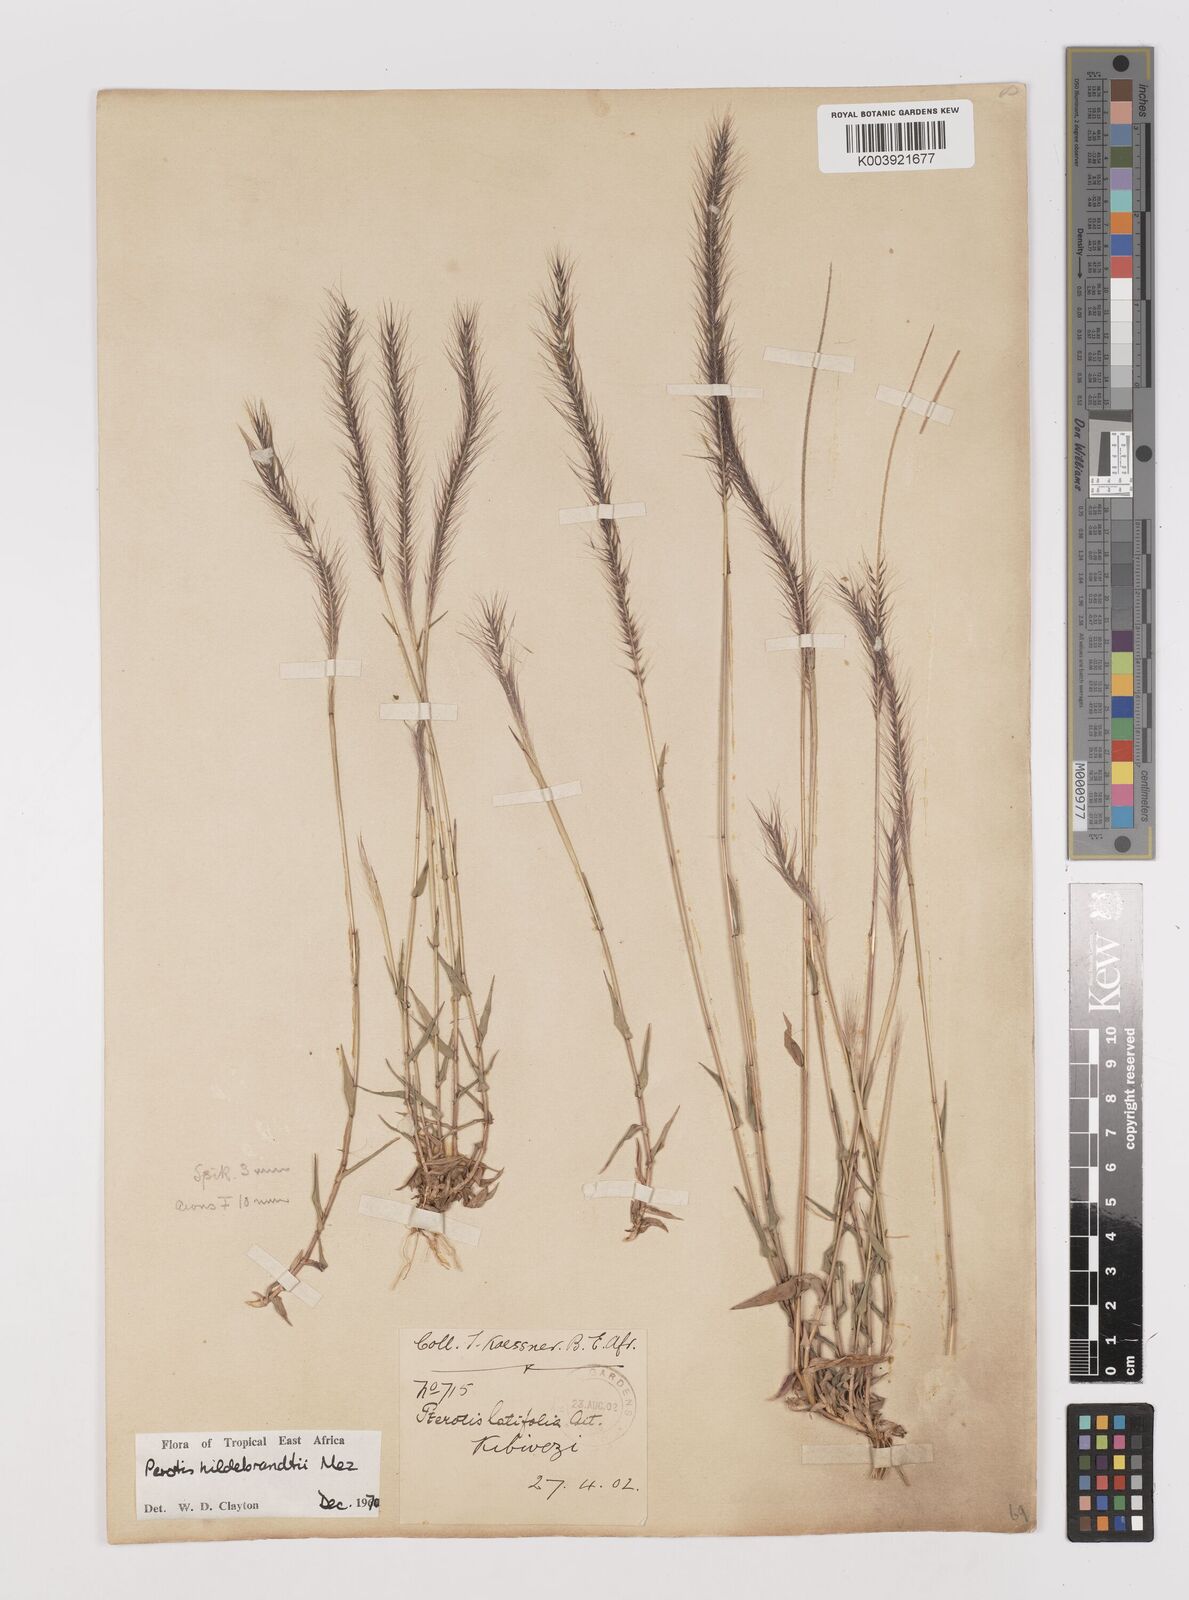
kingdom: Plantae
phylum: Tracheophyta
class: Liliopsida
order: Poales
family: Poaceae
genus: Perotis
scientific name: Perotis hildebrandtii
